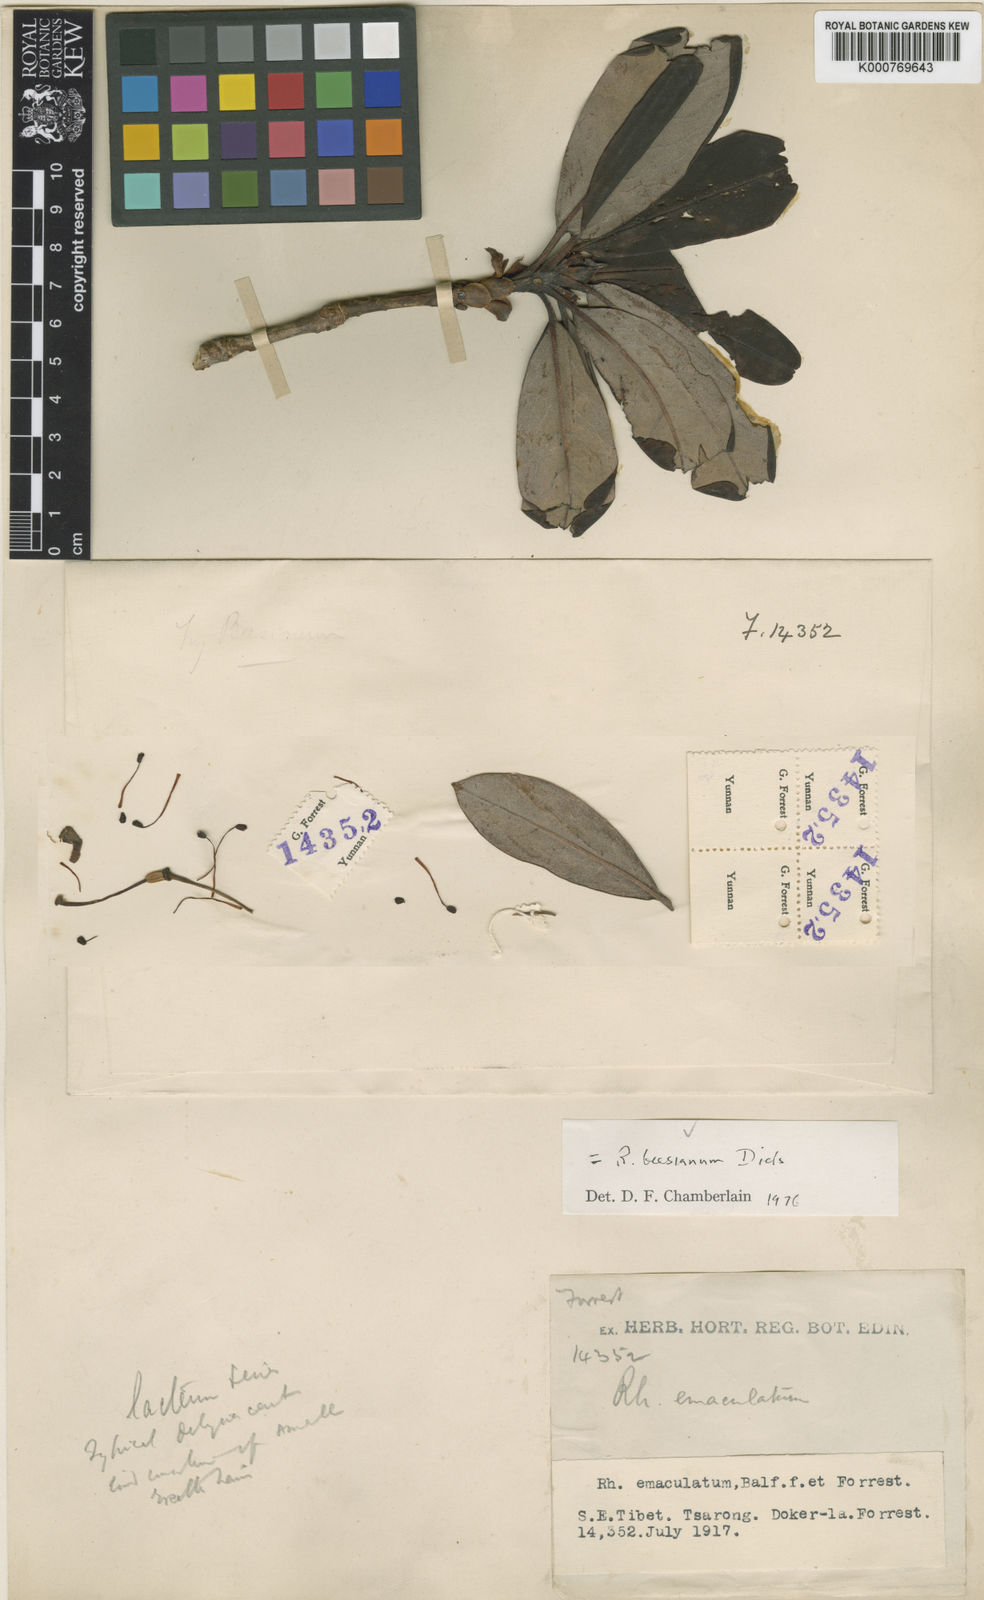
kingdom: Plantae
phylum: Tracheophyta
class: Magnoliopsida
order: Ericales
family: Ericaceae
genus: Rhododendron
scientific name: Rhododendron beesianum
